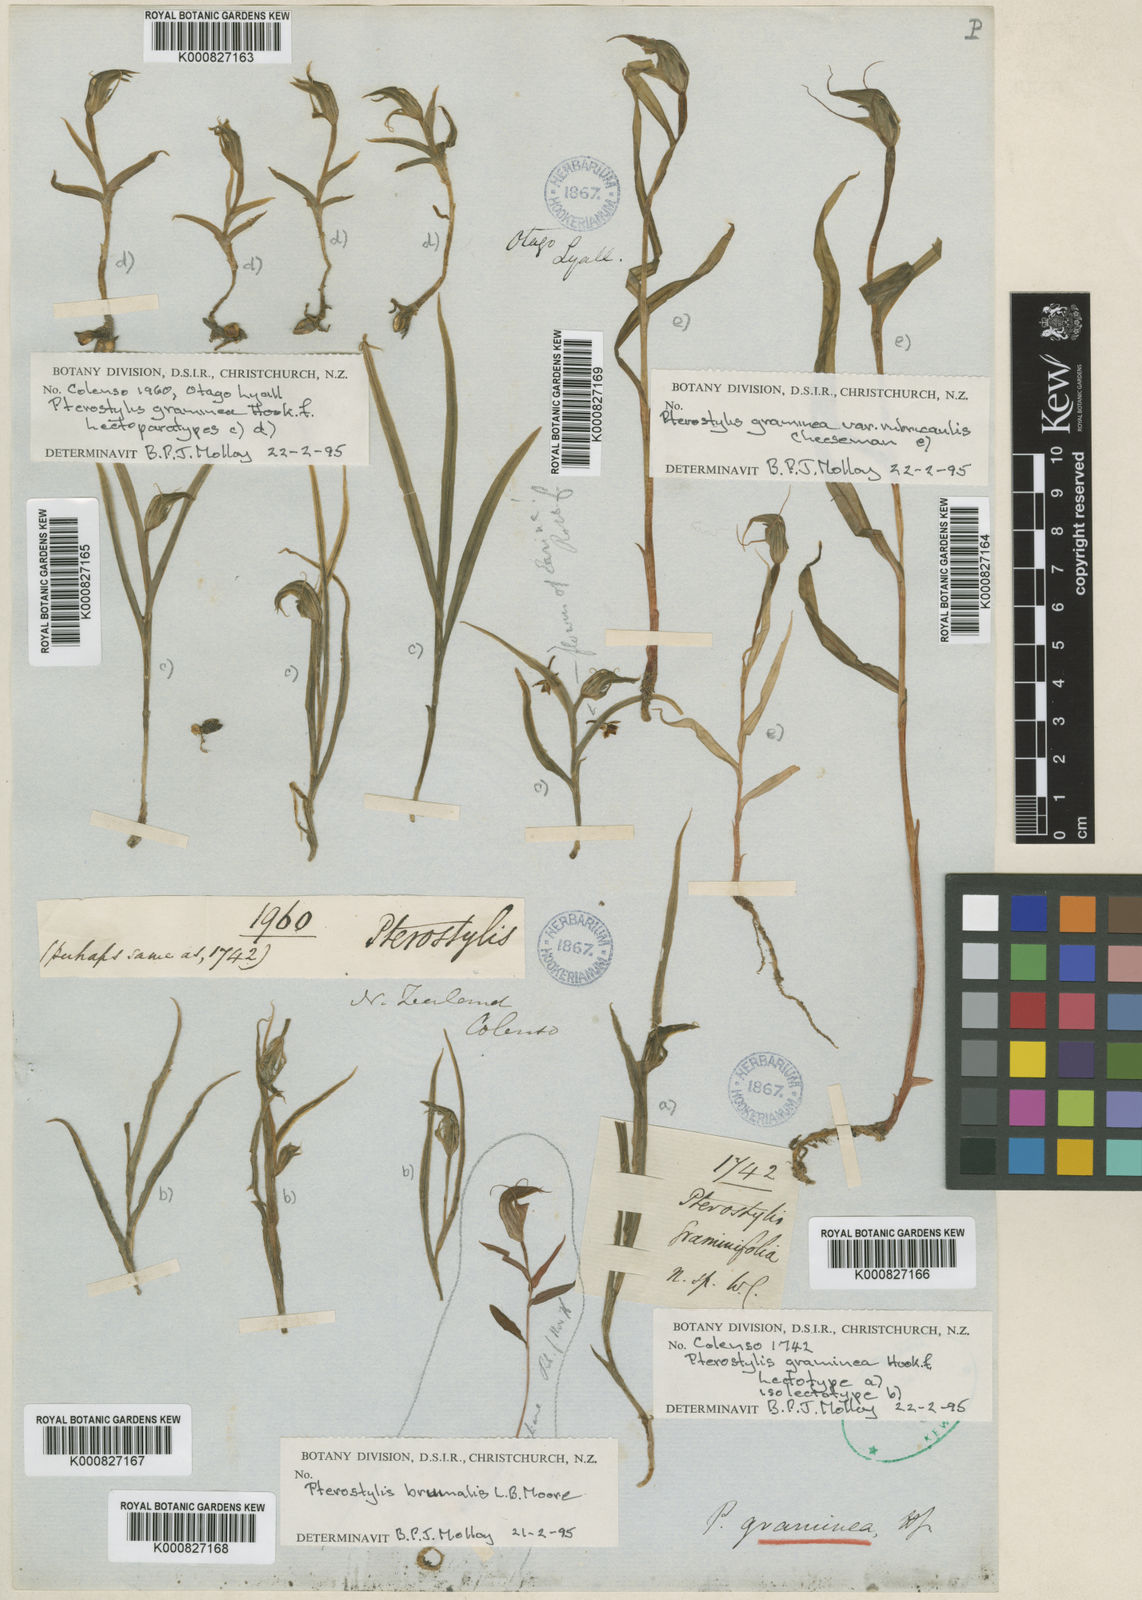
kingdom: Plantae
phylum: Tracheophyta
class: Liliopsida
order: Asparagales
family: Orchidaceae
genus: Pterostylis
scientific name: Pterostylis graminea
